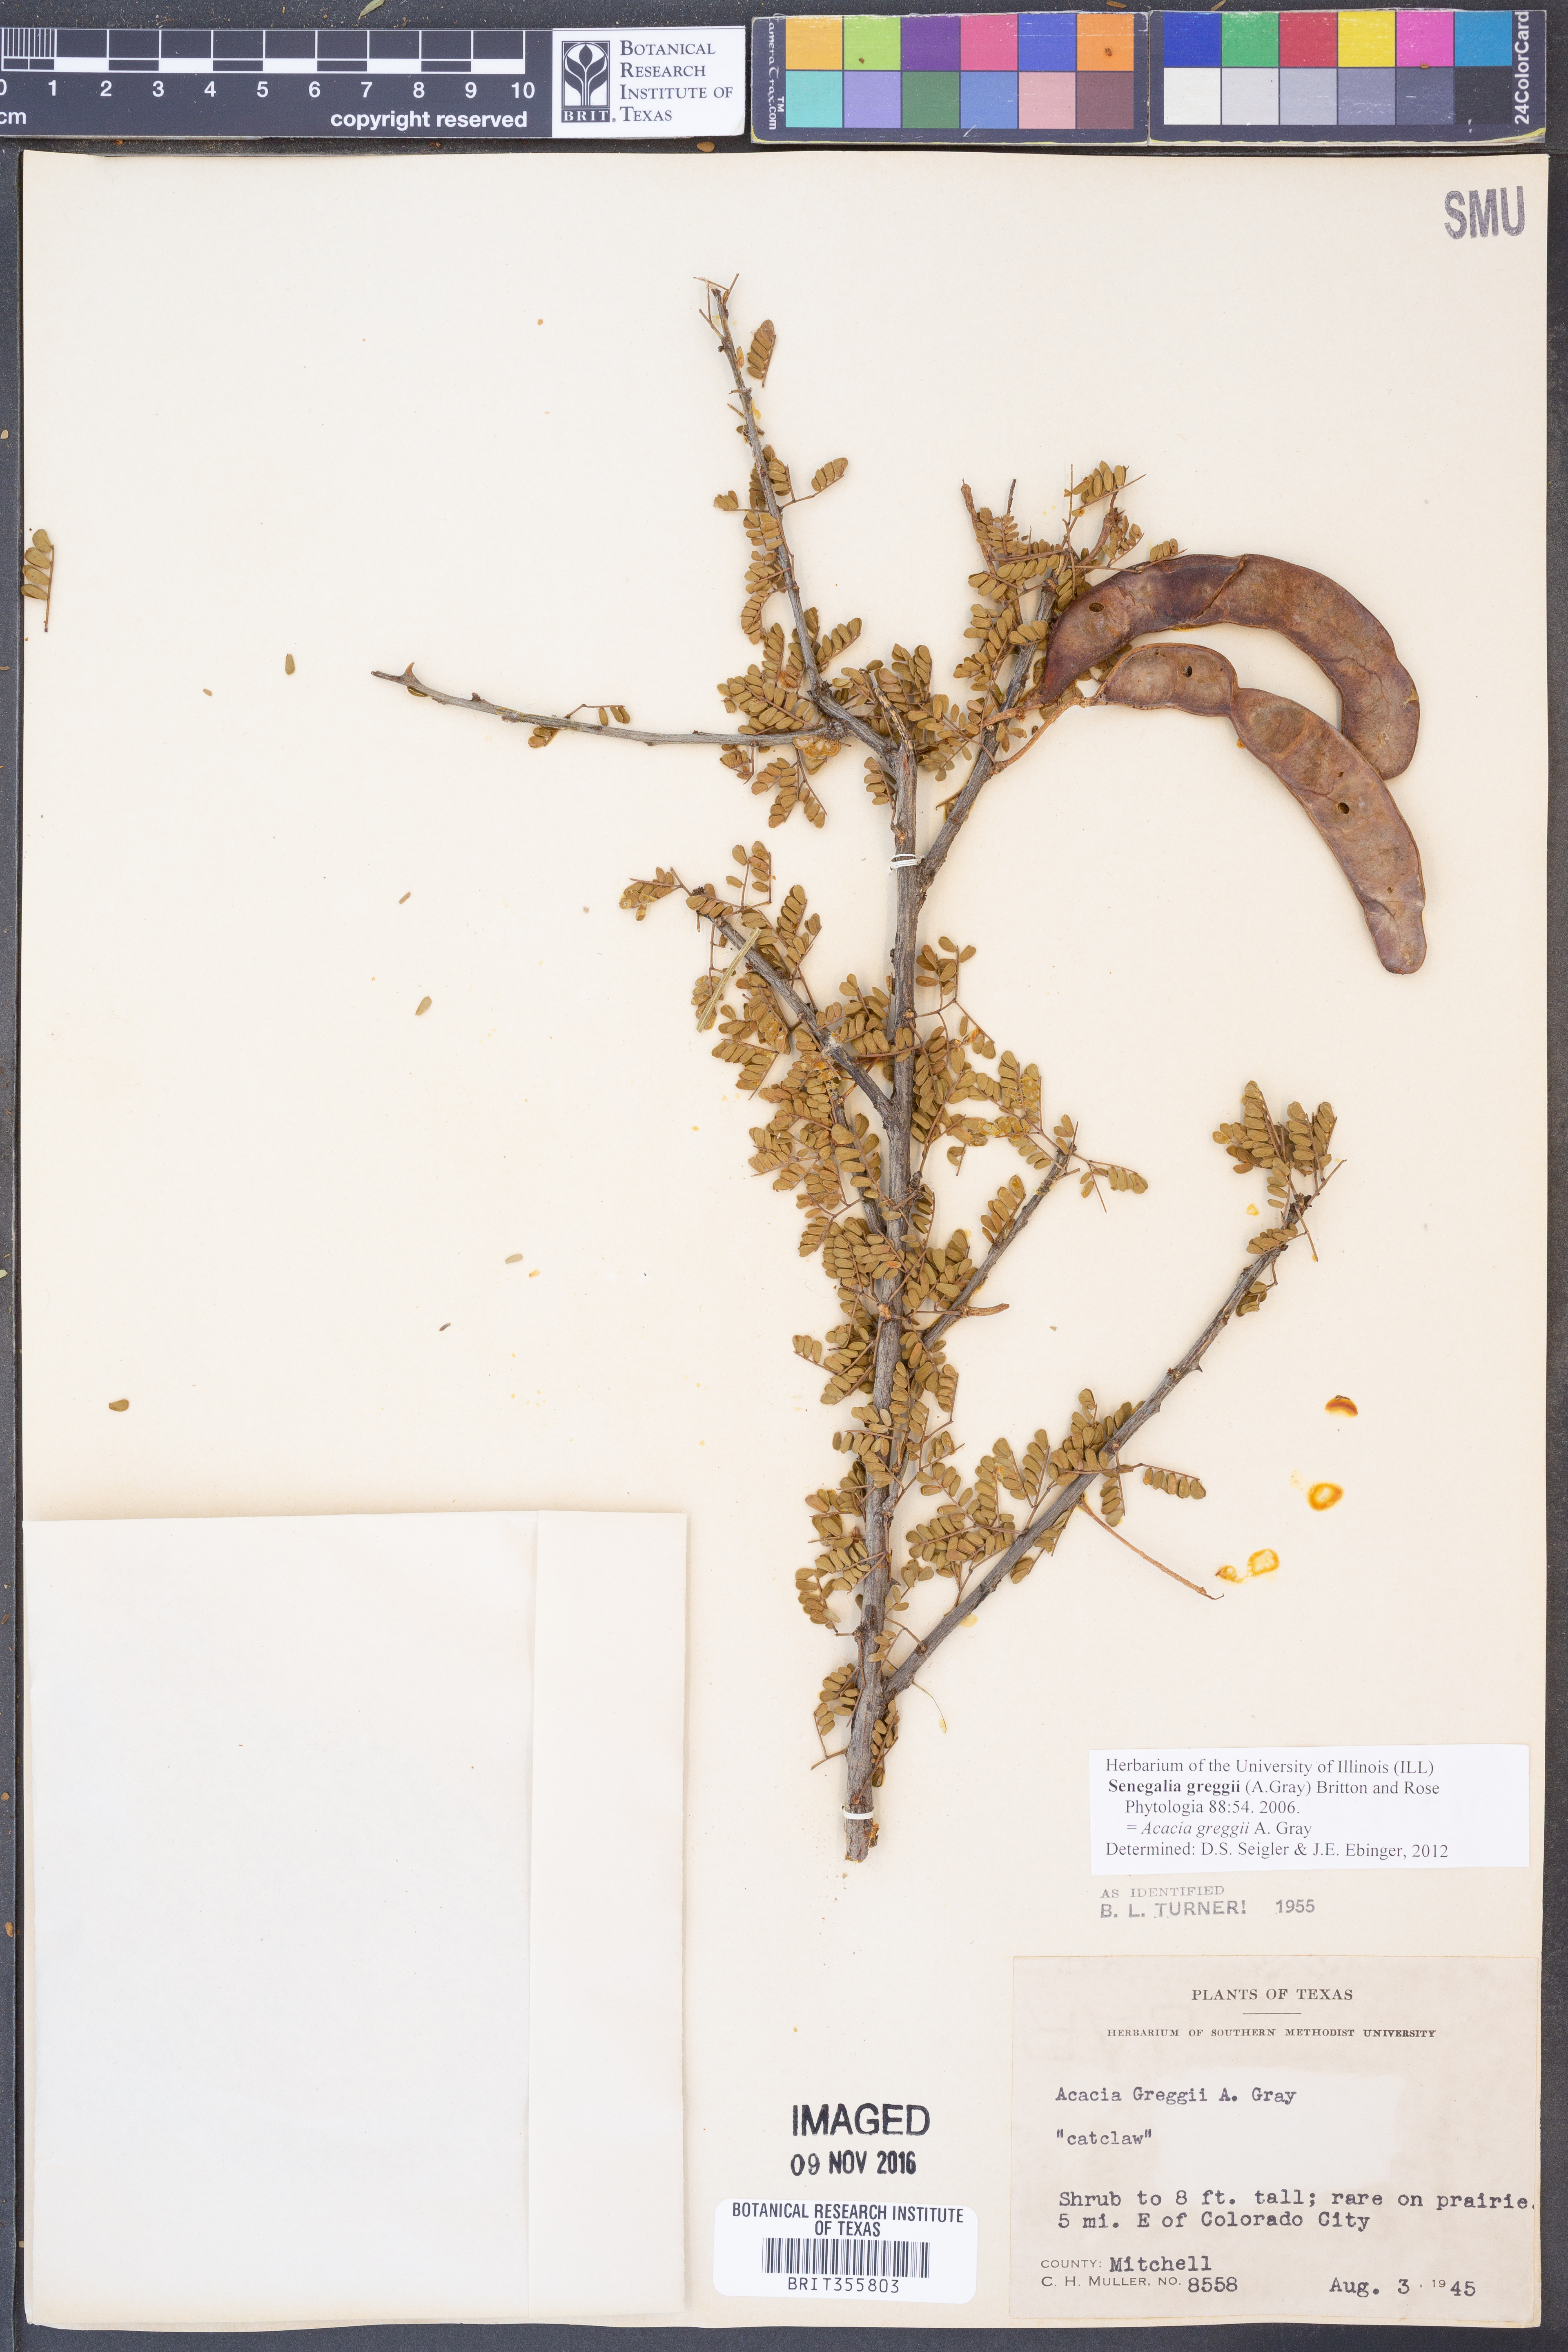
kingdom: Plantae
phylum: Tracheophyta
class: Magnoliopsida
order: Fabales
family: Fabaceae
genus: Senegalia
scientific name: Senegalia greggii
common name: Texas-mimosa
